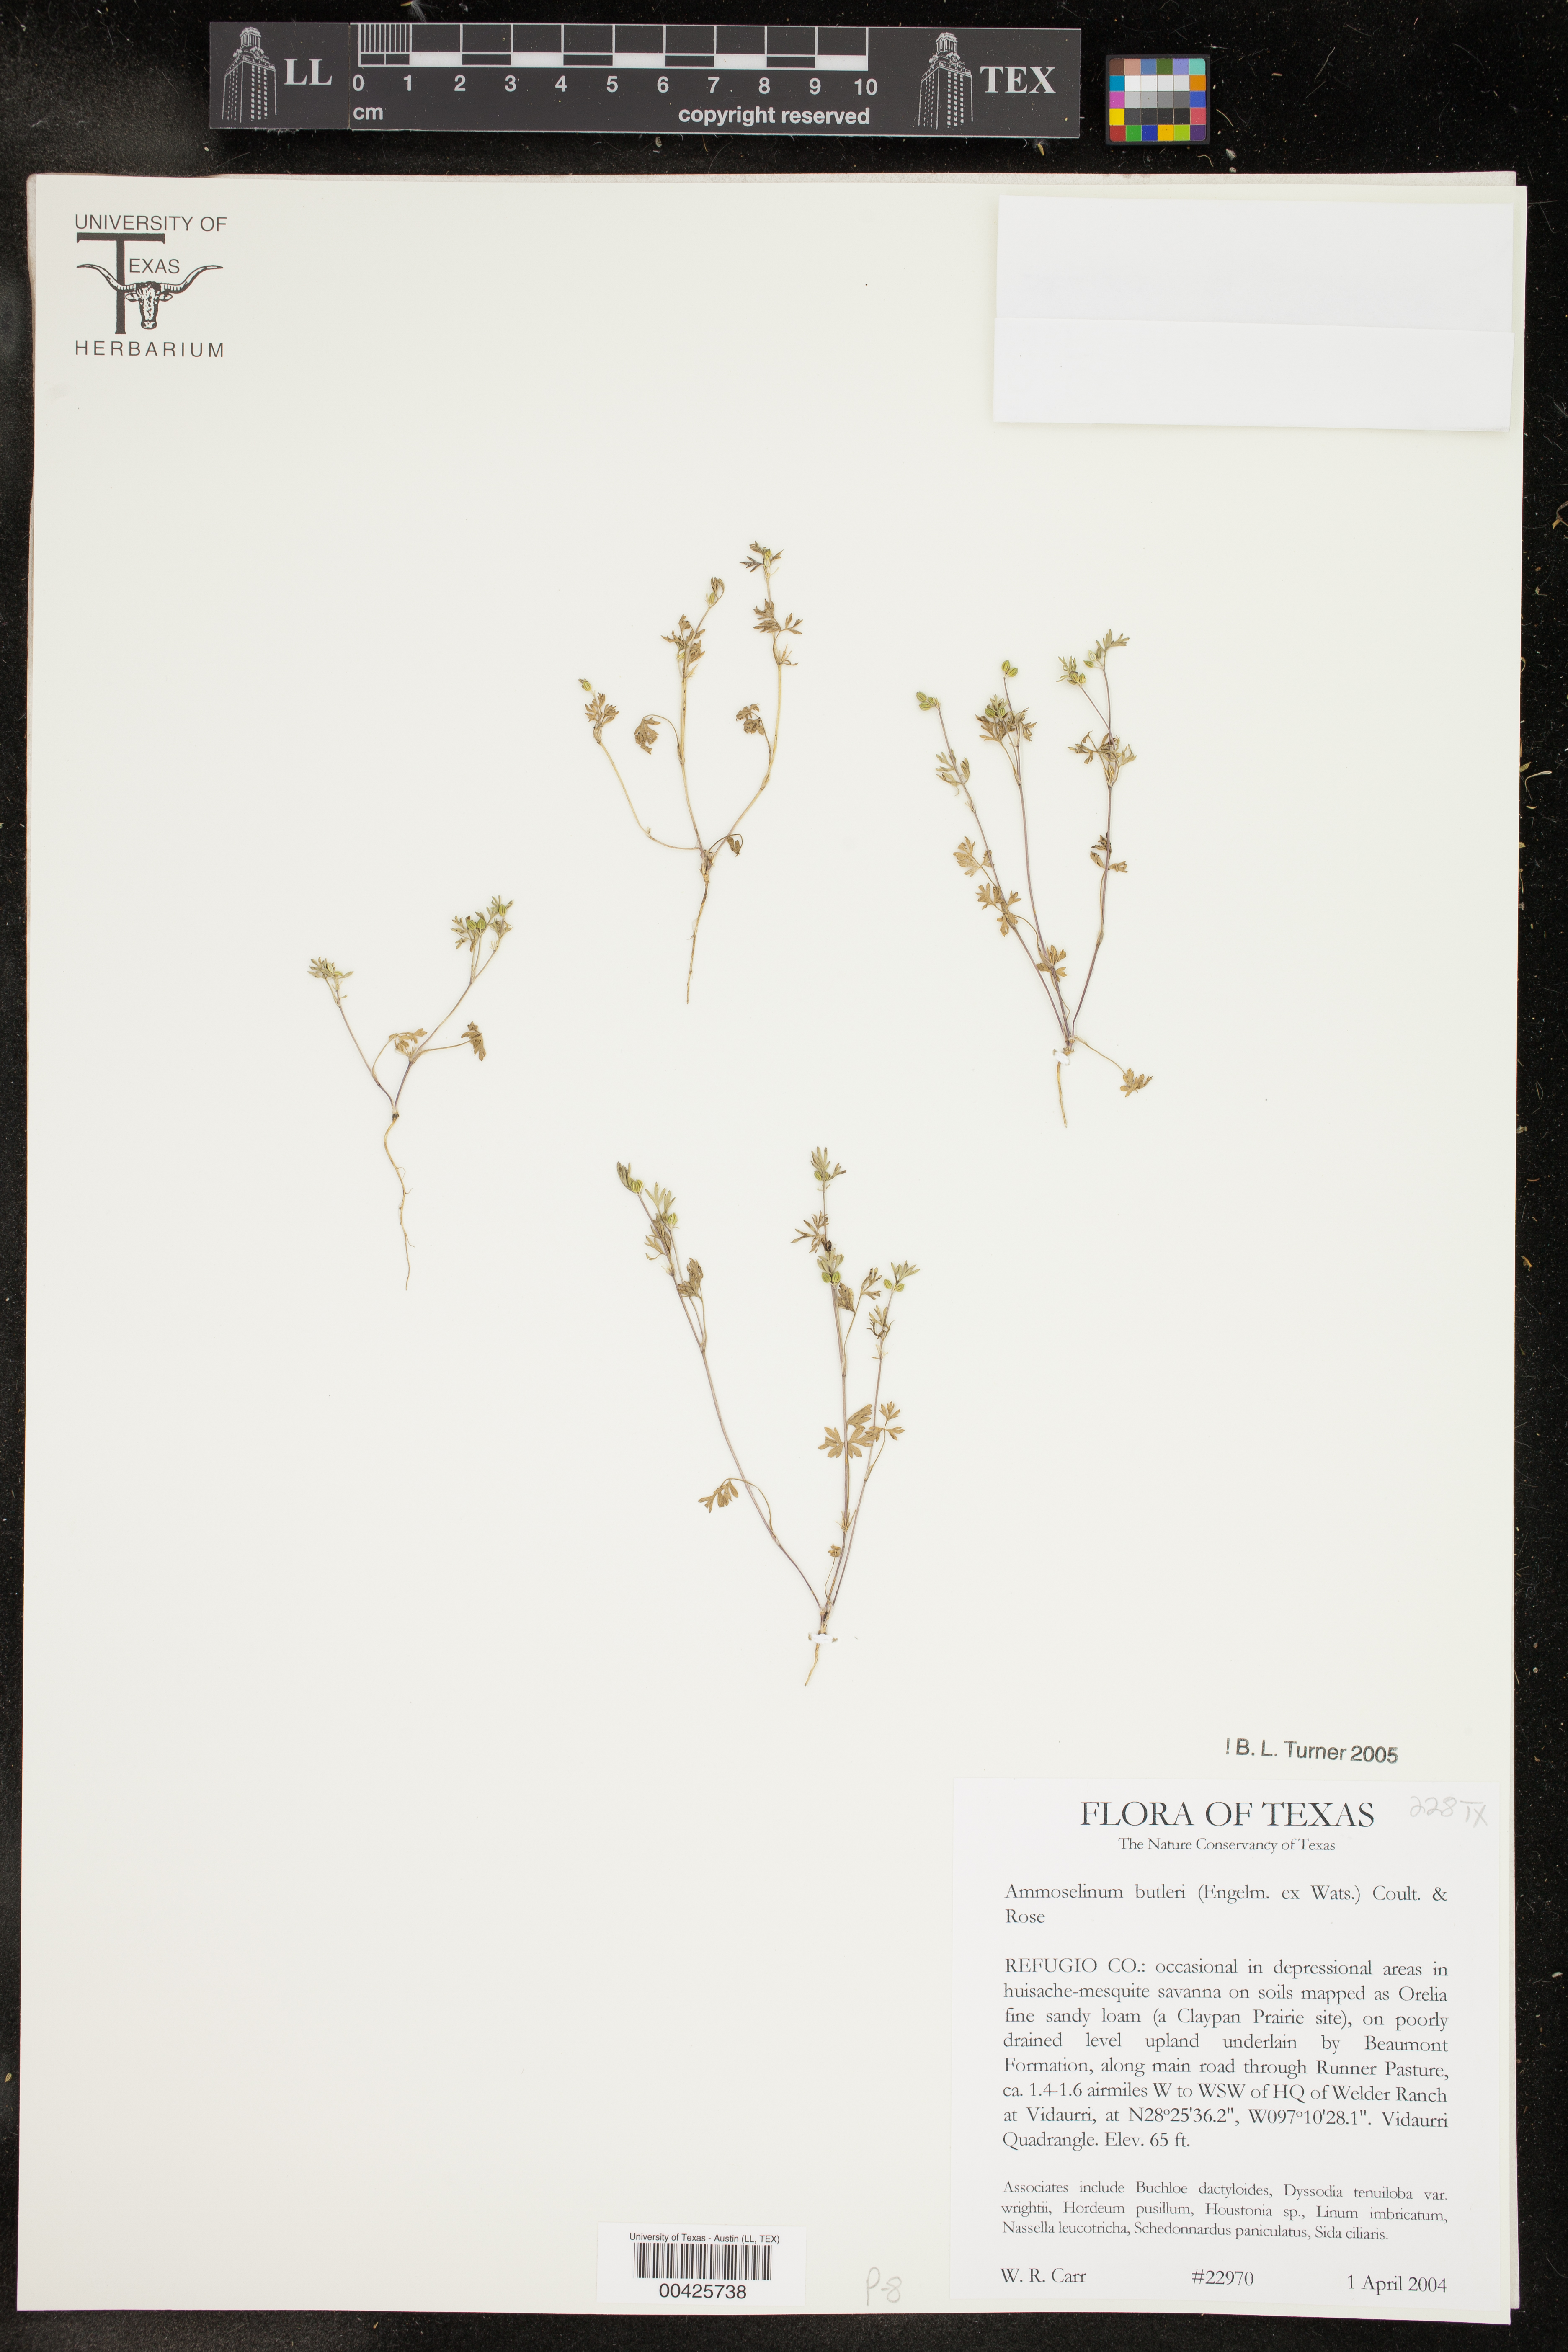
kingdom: Plantae
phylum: Tracheophyta
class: Magnoliopsida
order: Apiales
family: Apiaceae
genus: Ammoselinum
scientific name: Ammoselinum butleri
